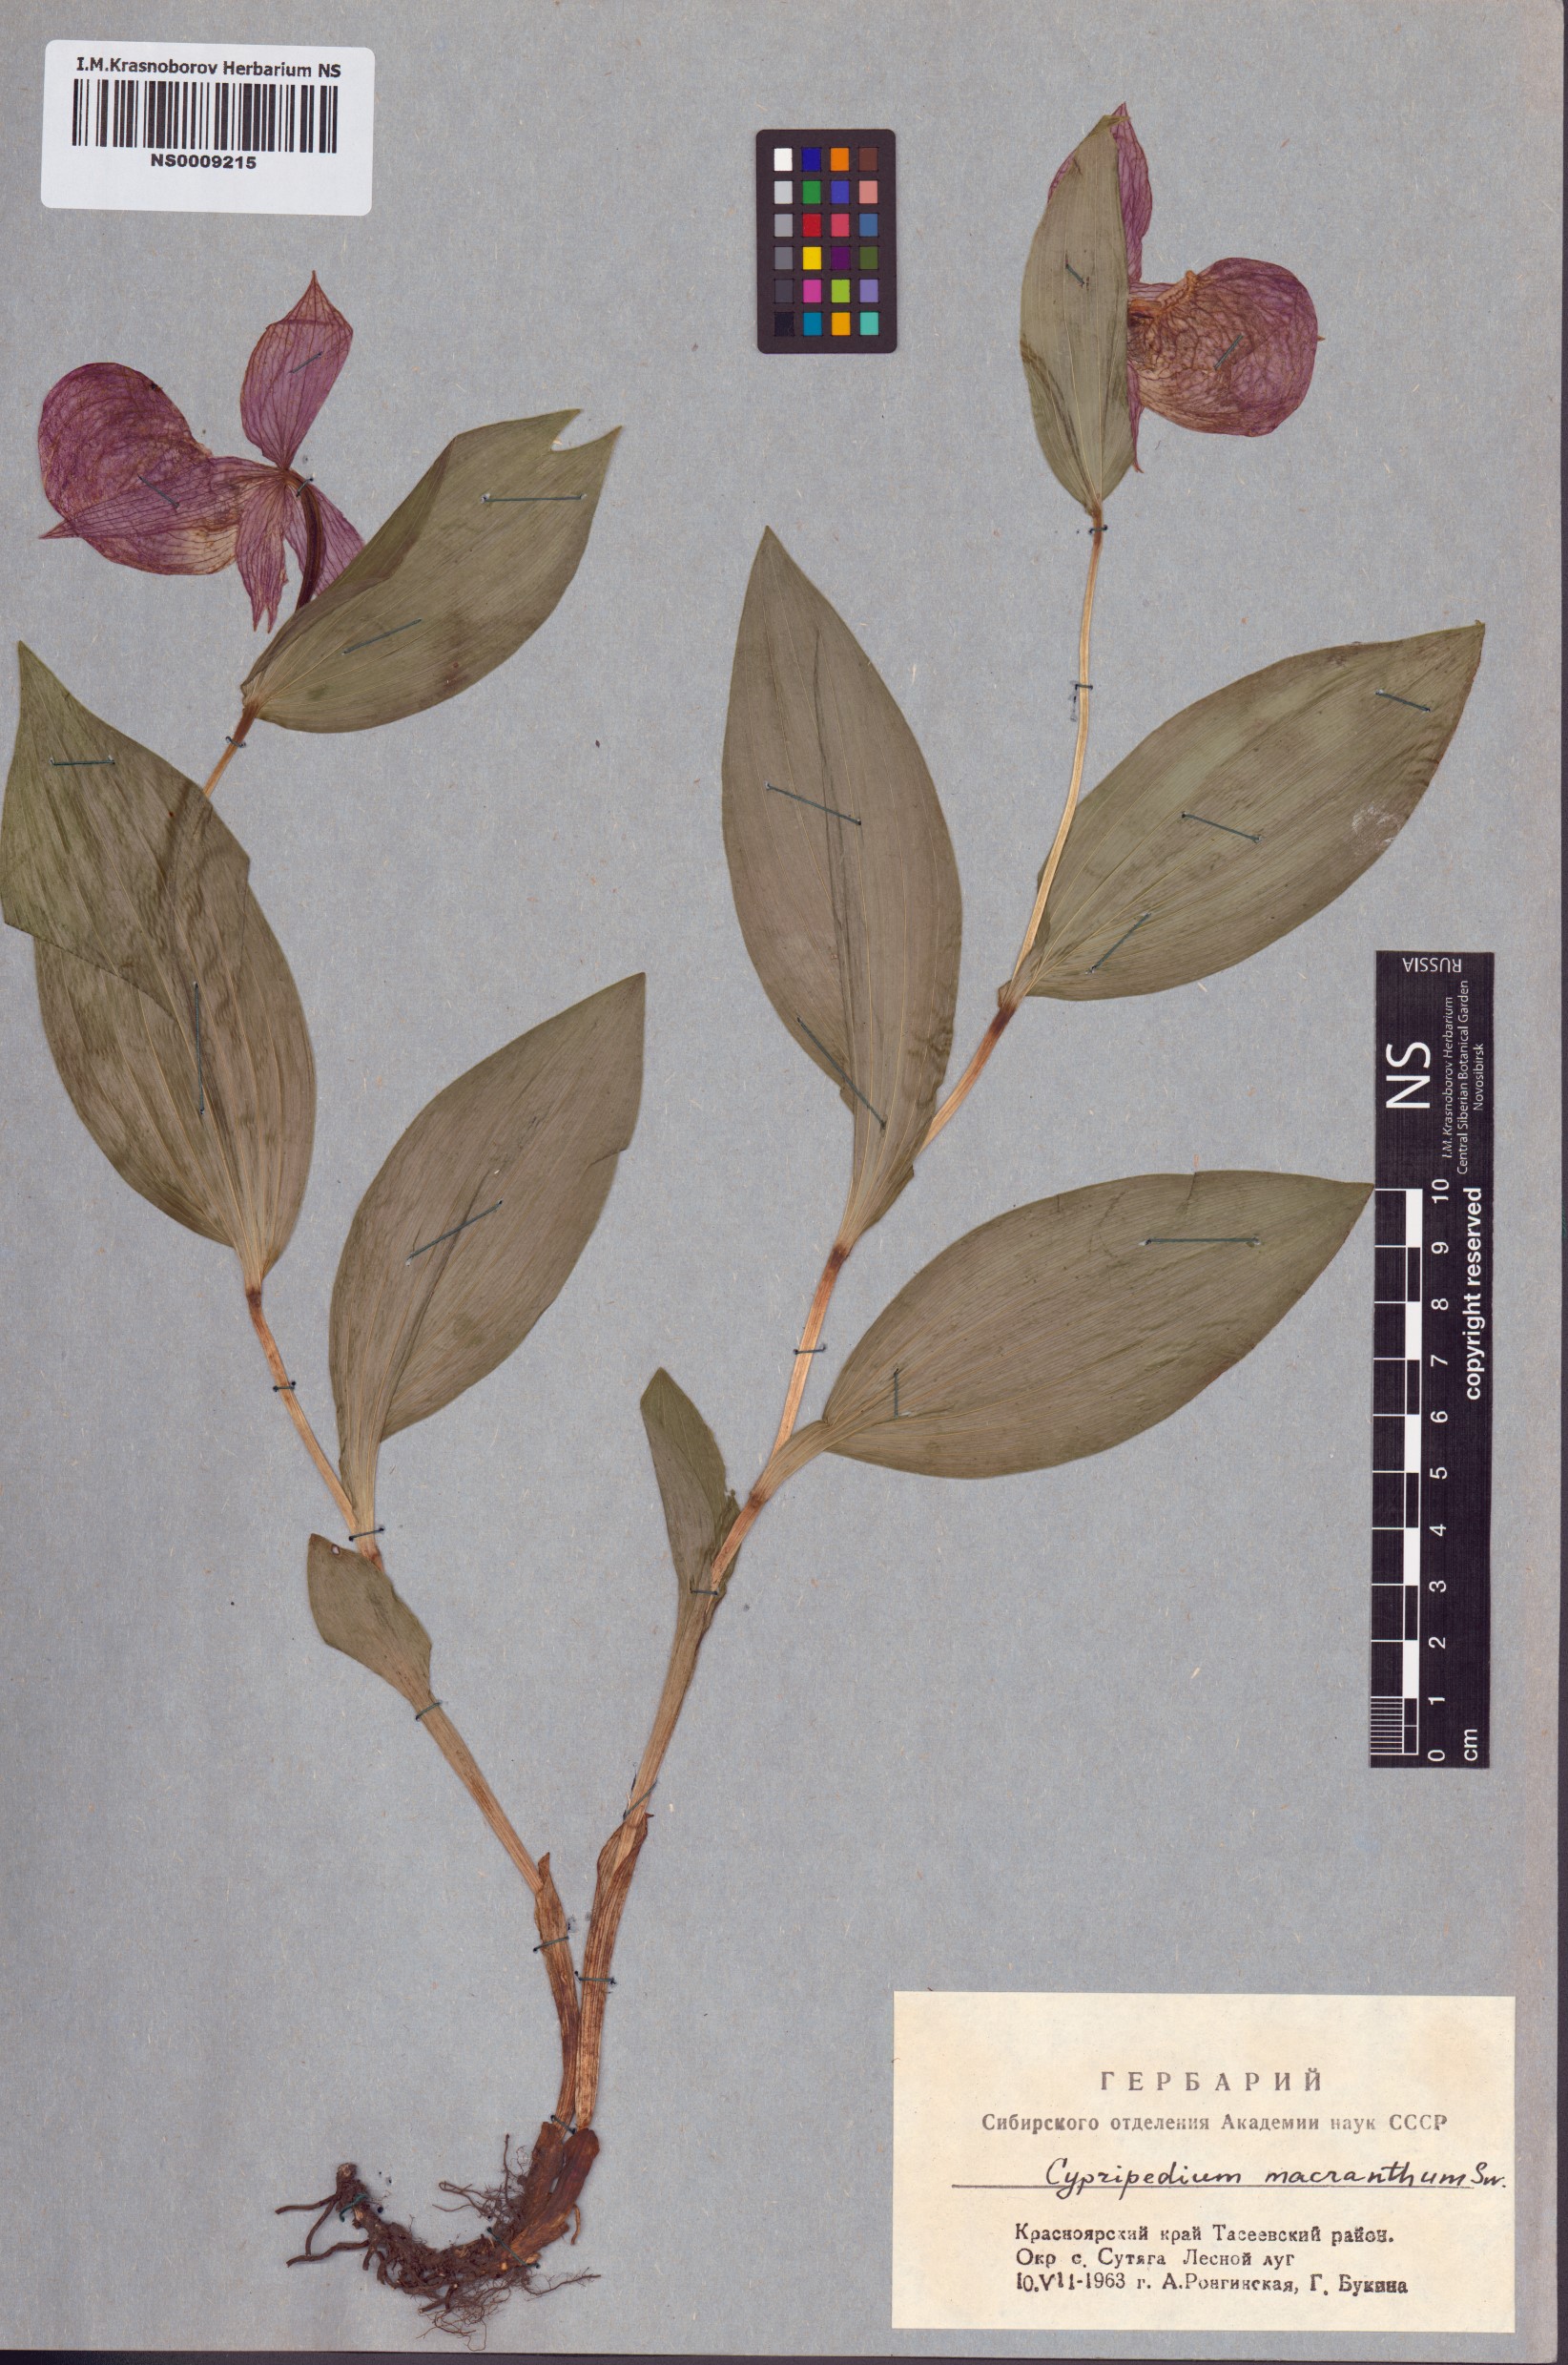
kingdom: Plantae
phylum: Tracheophyta
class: Liliopsida
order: Asparagales
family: Orchidaceae
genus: Cypripedium
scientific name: Cypripedium macranthos
